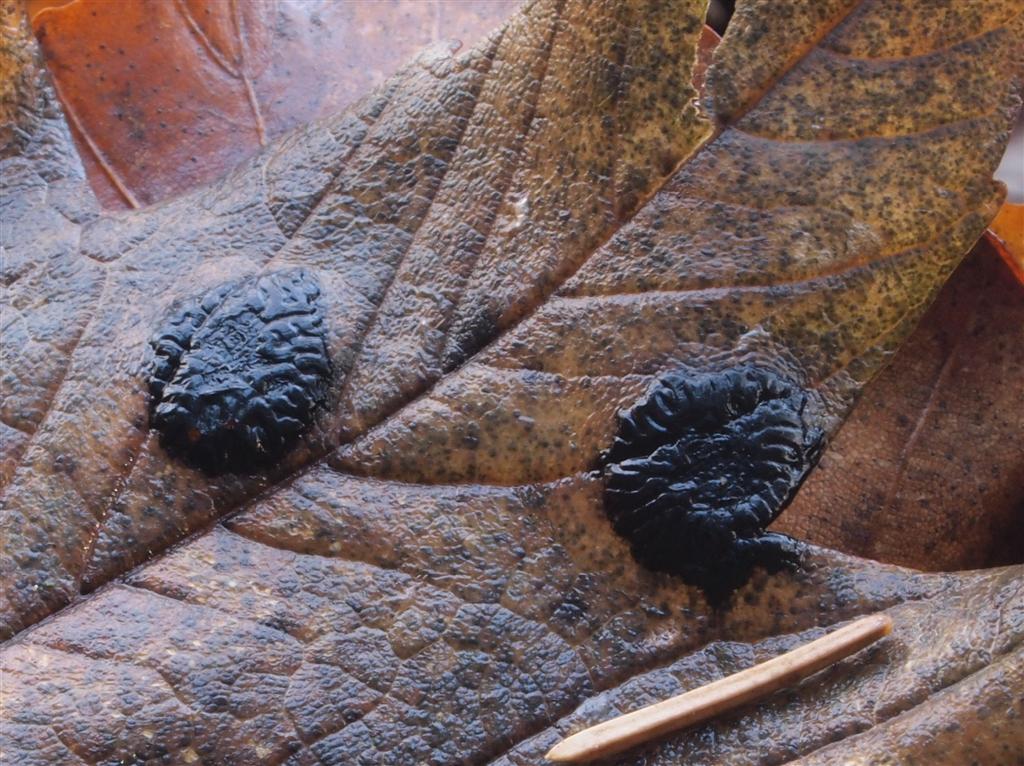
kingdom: Fungi
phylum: Ascomycota
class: Leotiomycetes
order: Rhytismatales
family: Rhytismataceae
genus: Rhytisma
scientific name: Rhytisma acerinum
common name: ahorn-rynkeplet
